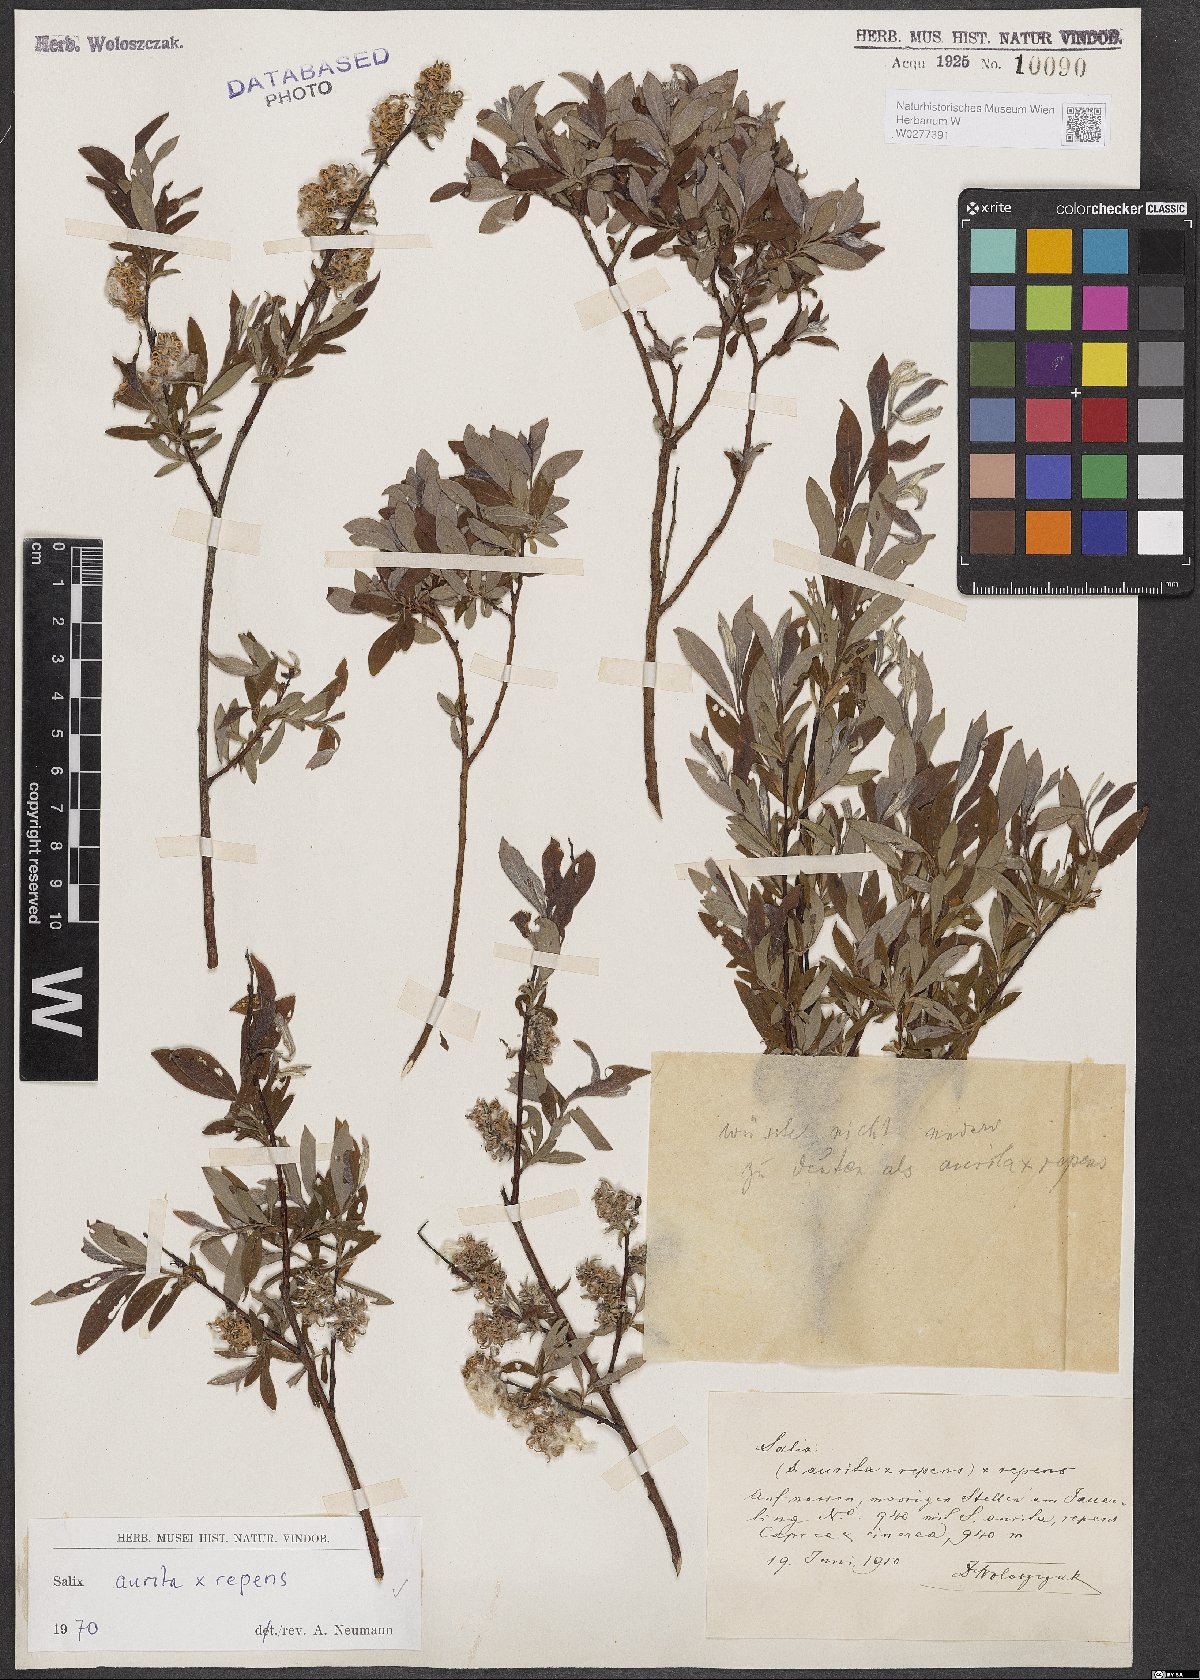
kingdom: Plantae
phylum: Tracheophyta
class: Magnoliopsida
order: Malpighiales
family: Salicaceae
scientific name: Salicaceae
